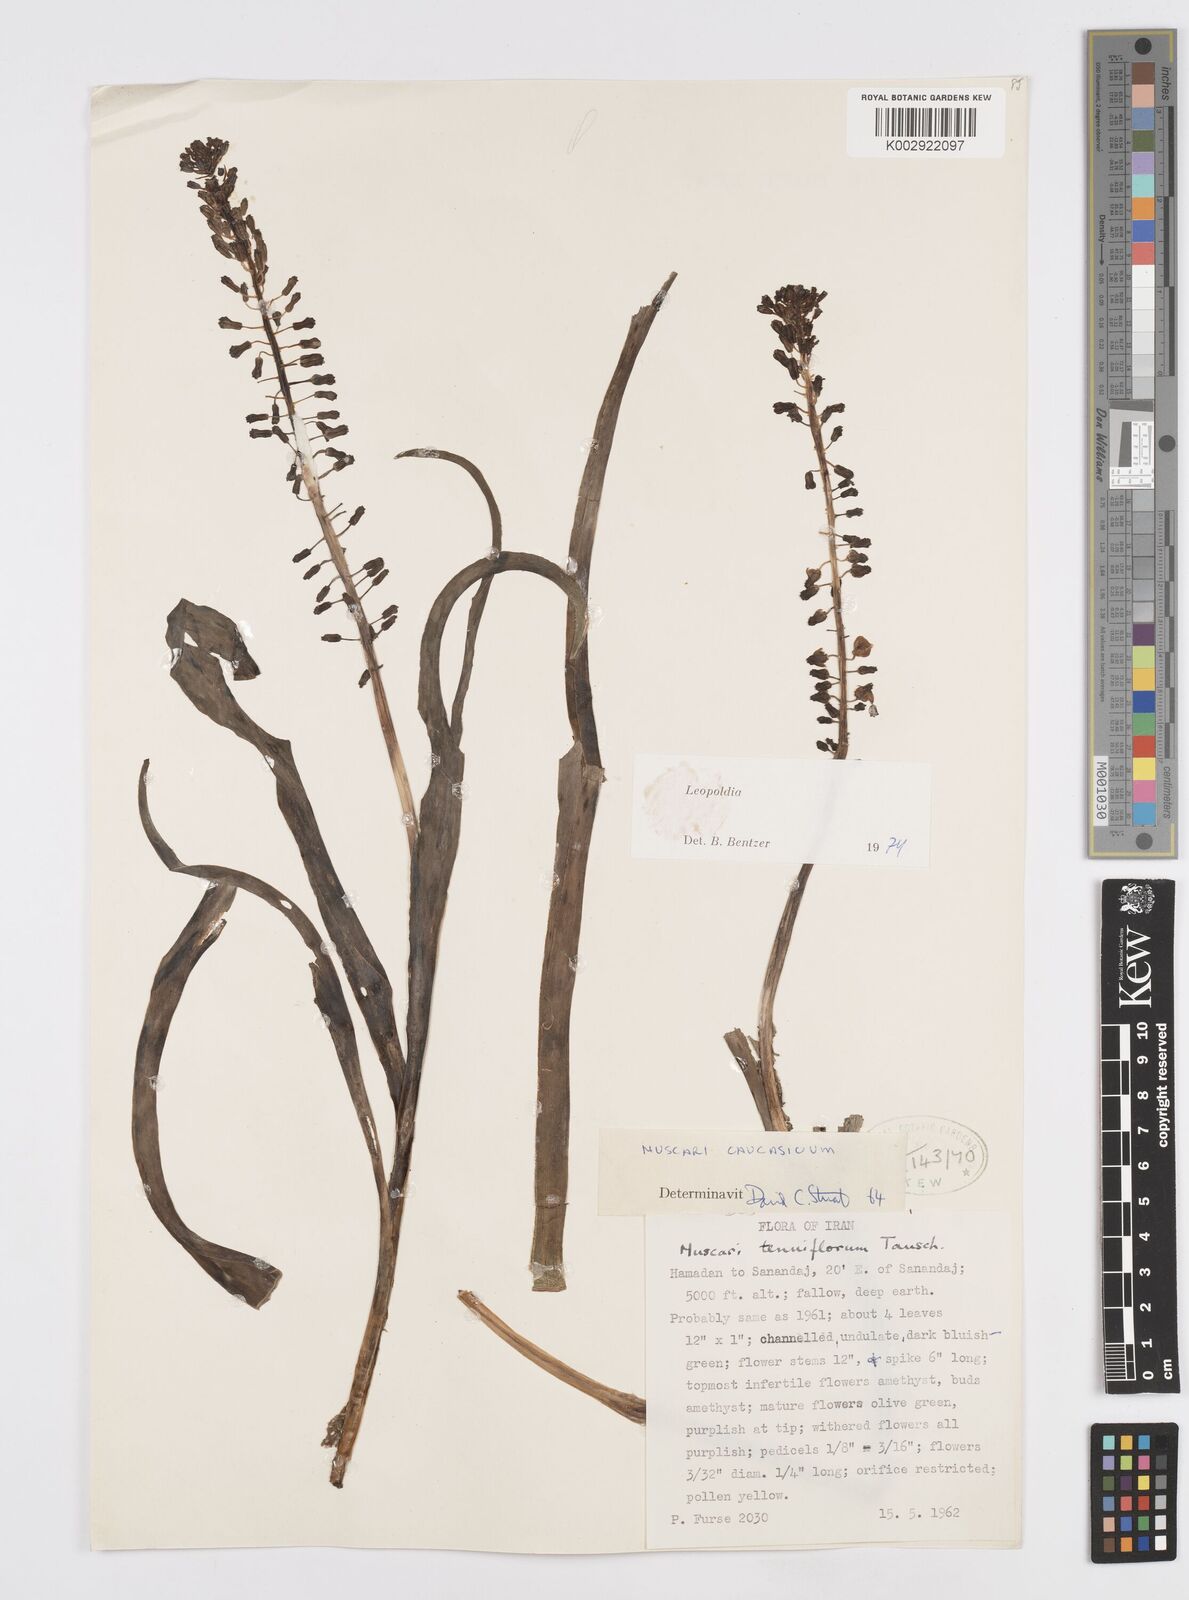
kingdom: Plantae
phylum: Tracheophyta
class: Liliopsida
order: Asparagales
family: Asparagaceae
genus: Muscari
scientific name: Muscari caucasicum
